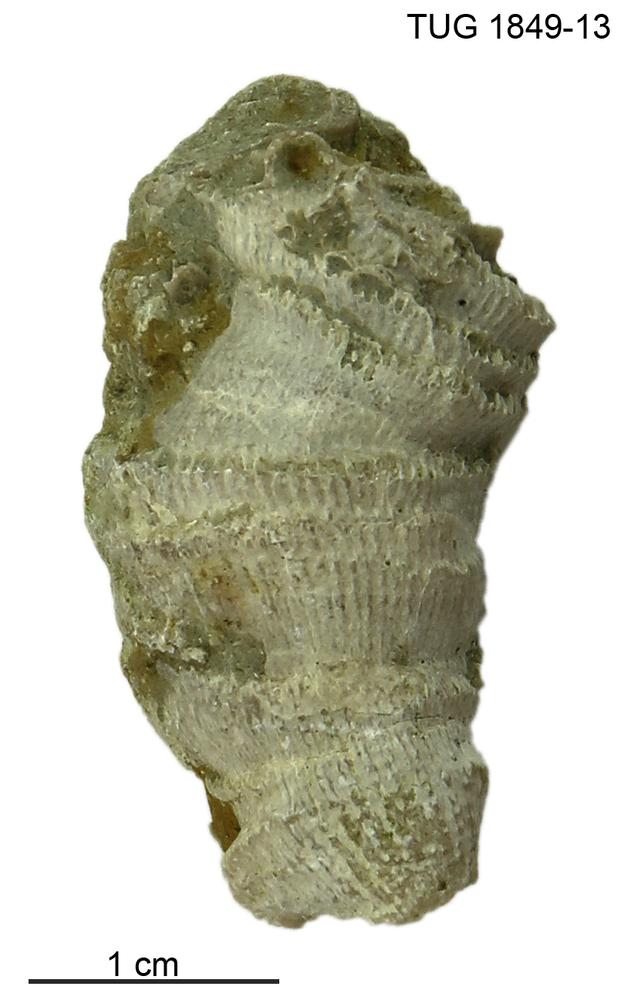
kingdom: Animalia
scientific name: Animalia
